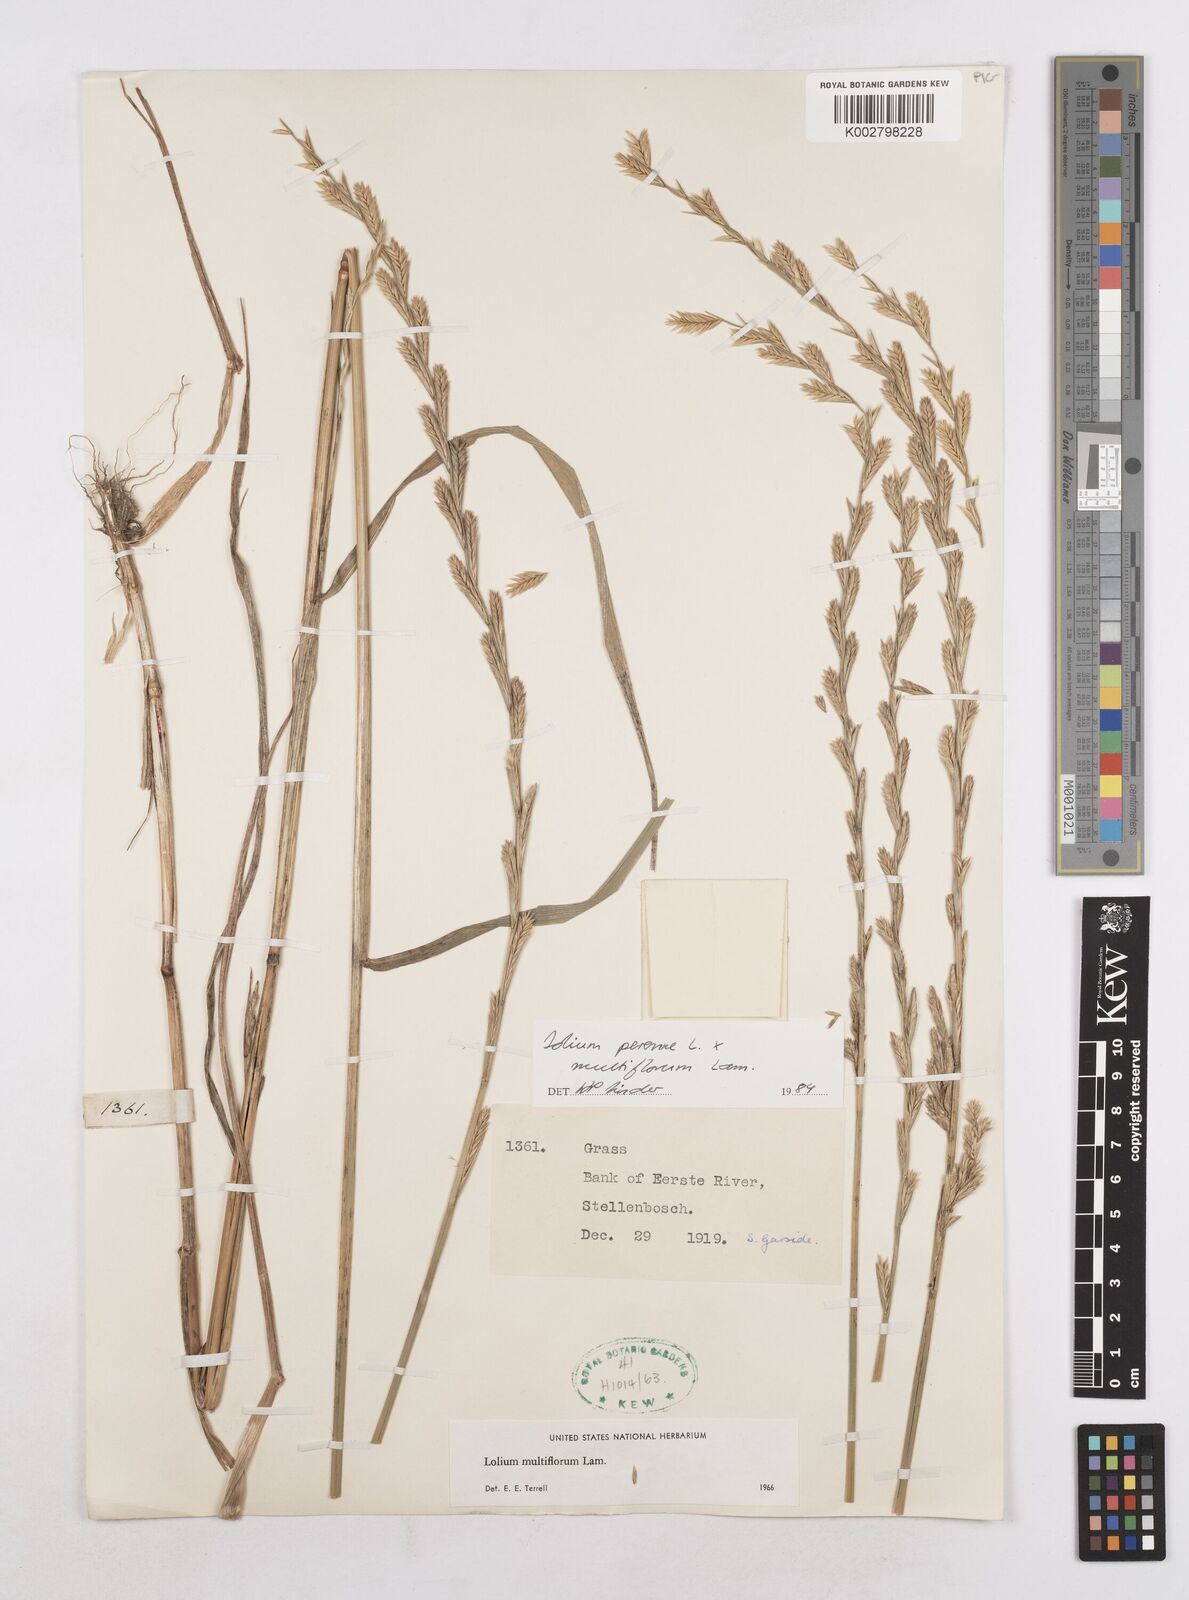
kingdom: Plantae
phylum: Tracheophyta
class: Liliopsida
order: Poales
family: Poaceae
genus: Lolium
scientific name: Lolium multiflorum
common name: Annual ryegrass
